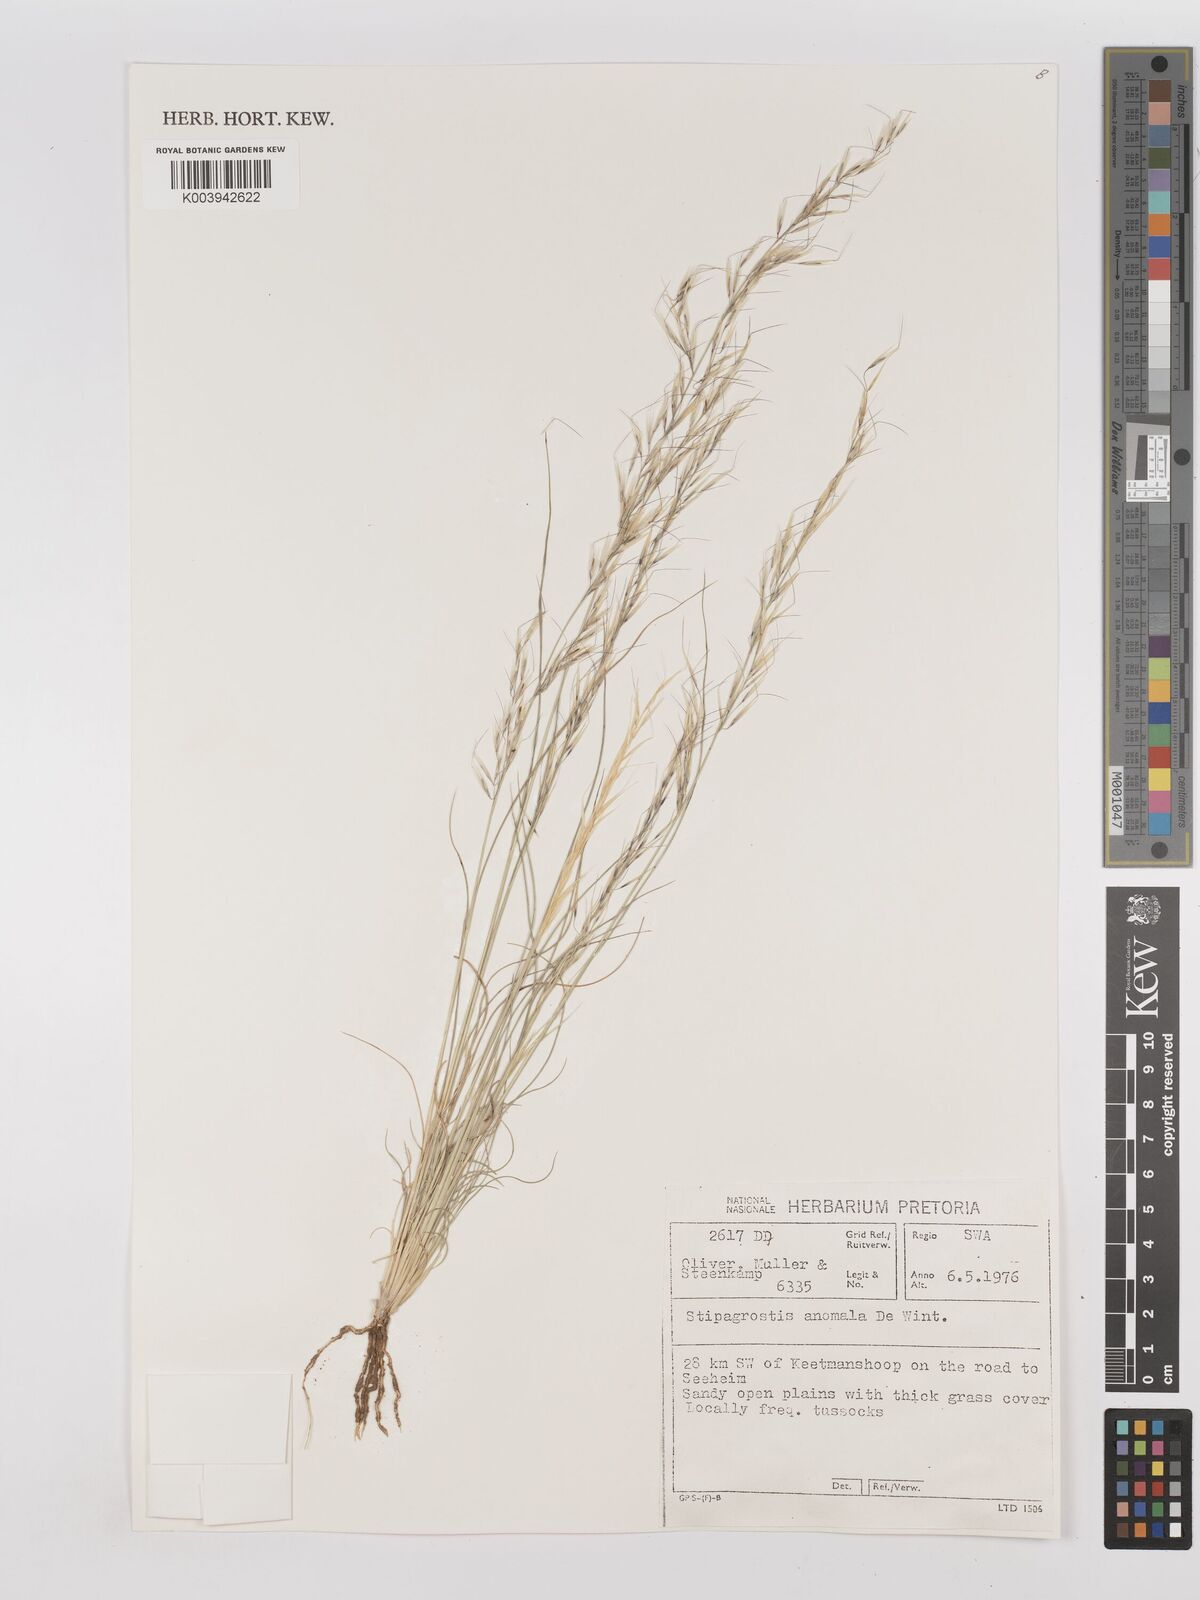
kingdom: Plantae
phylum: Tracheophyta
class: Liliopsida
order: Poales
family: Poaceae
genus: Stipagrostis
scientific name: Stipagrostis anomala
